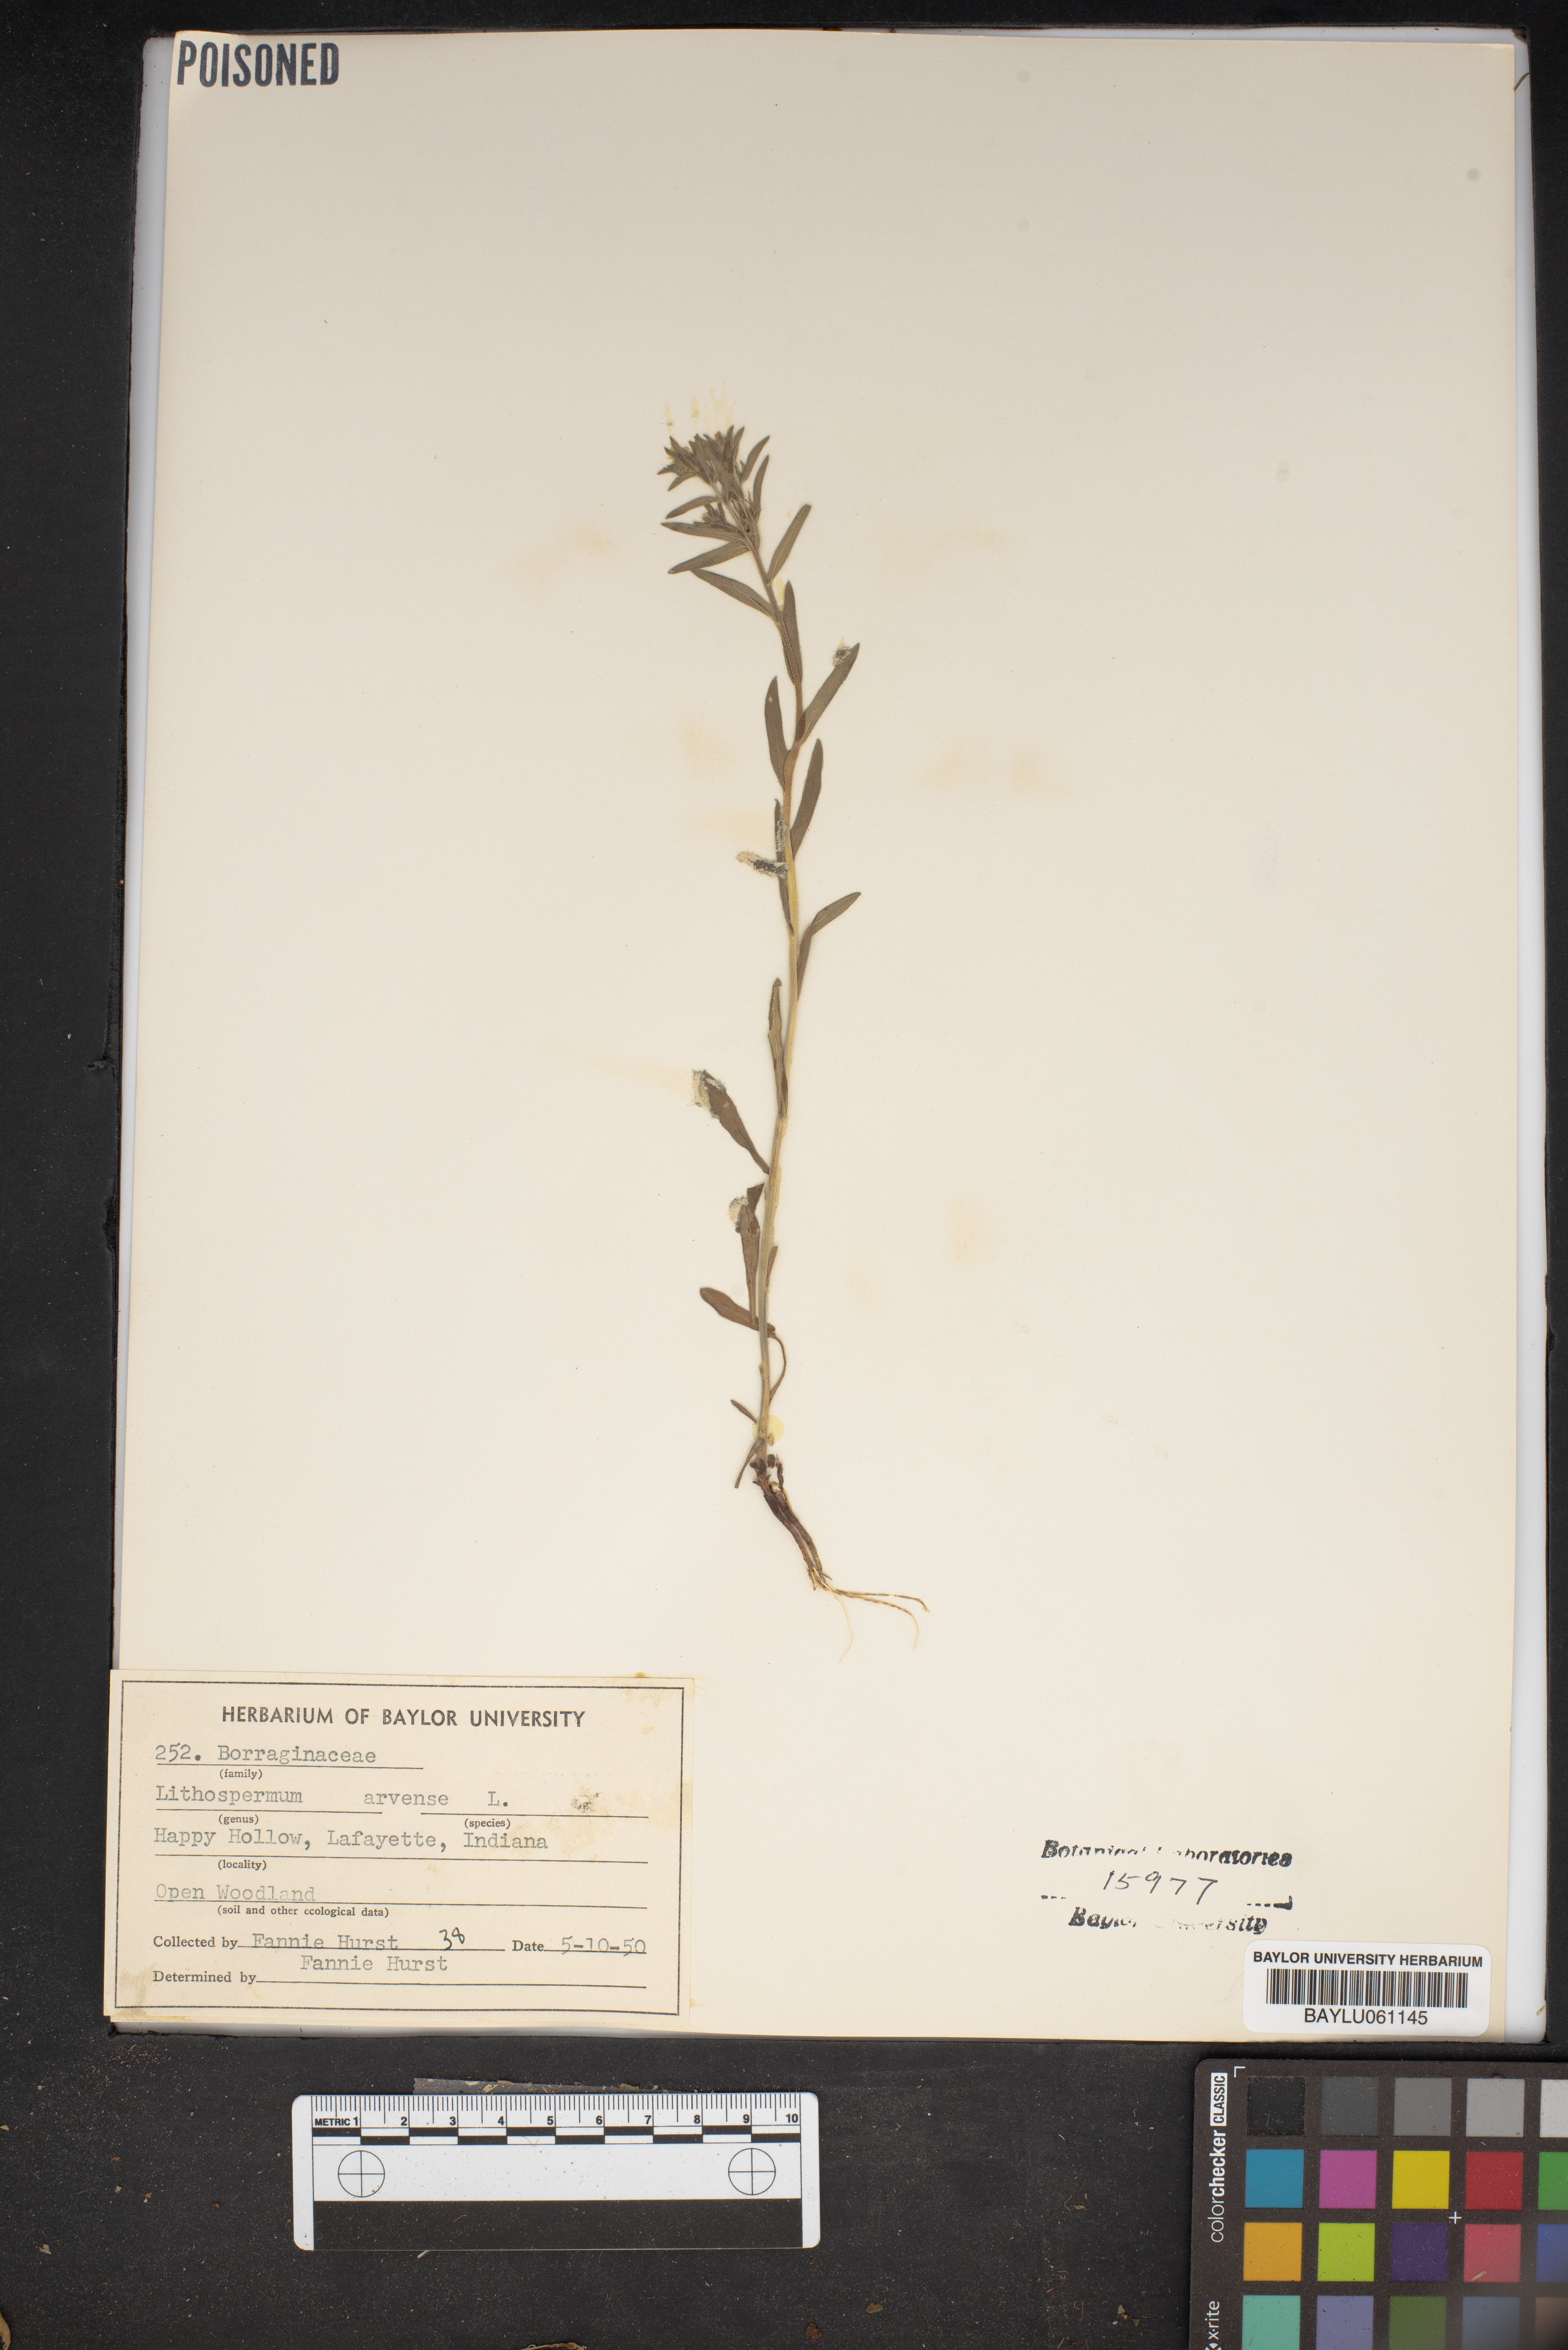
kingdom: Plantae
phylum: Tracheophyta
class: Magnoliopsida
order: Boraginales
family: Boraginaceae
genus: Lithospermum
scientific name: Lithospermum erythrorhizon
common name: Purple gromwell
